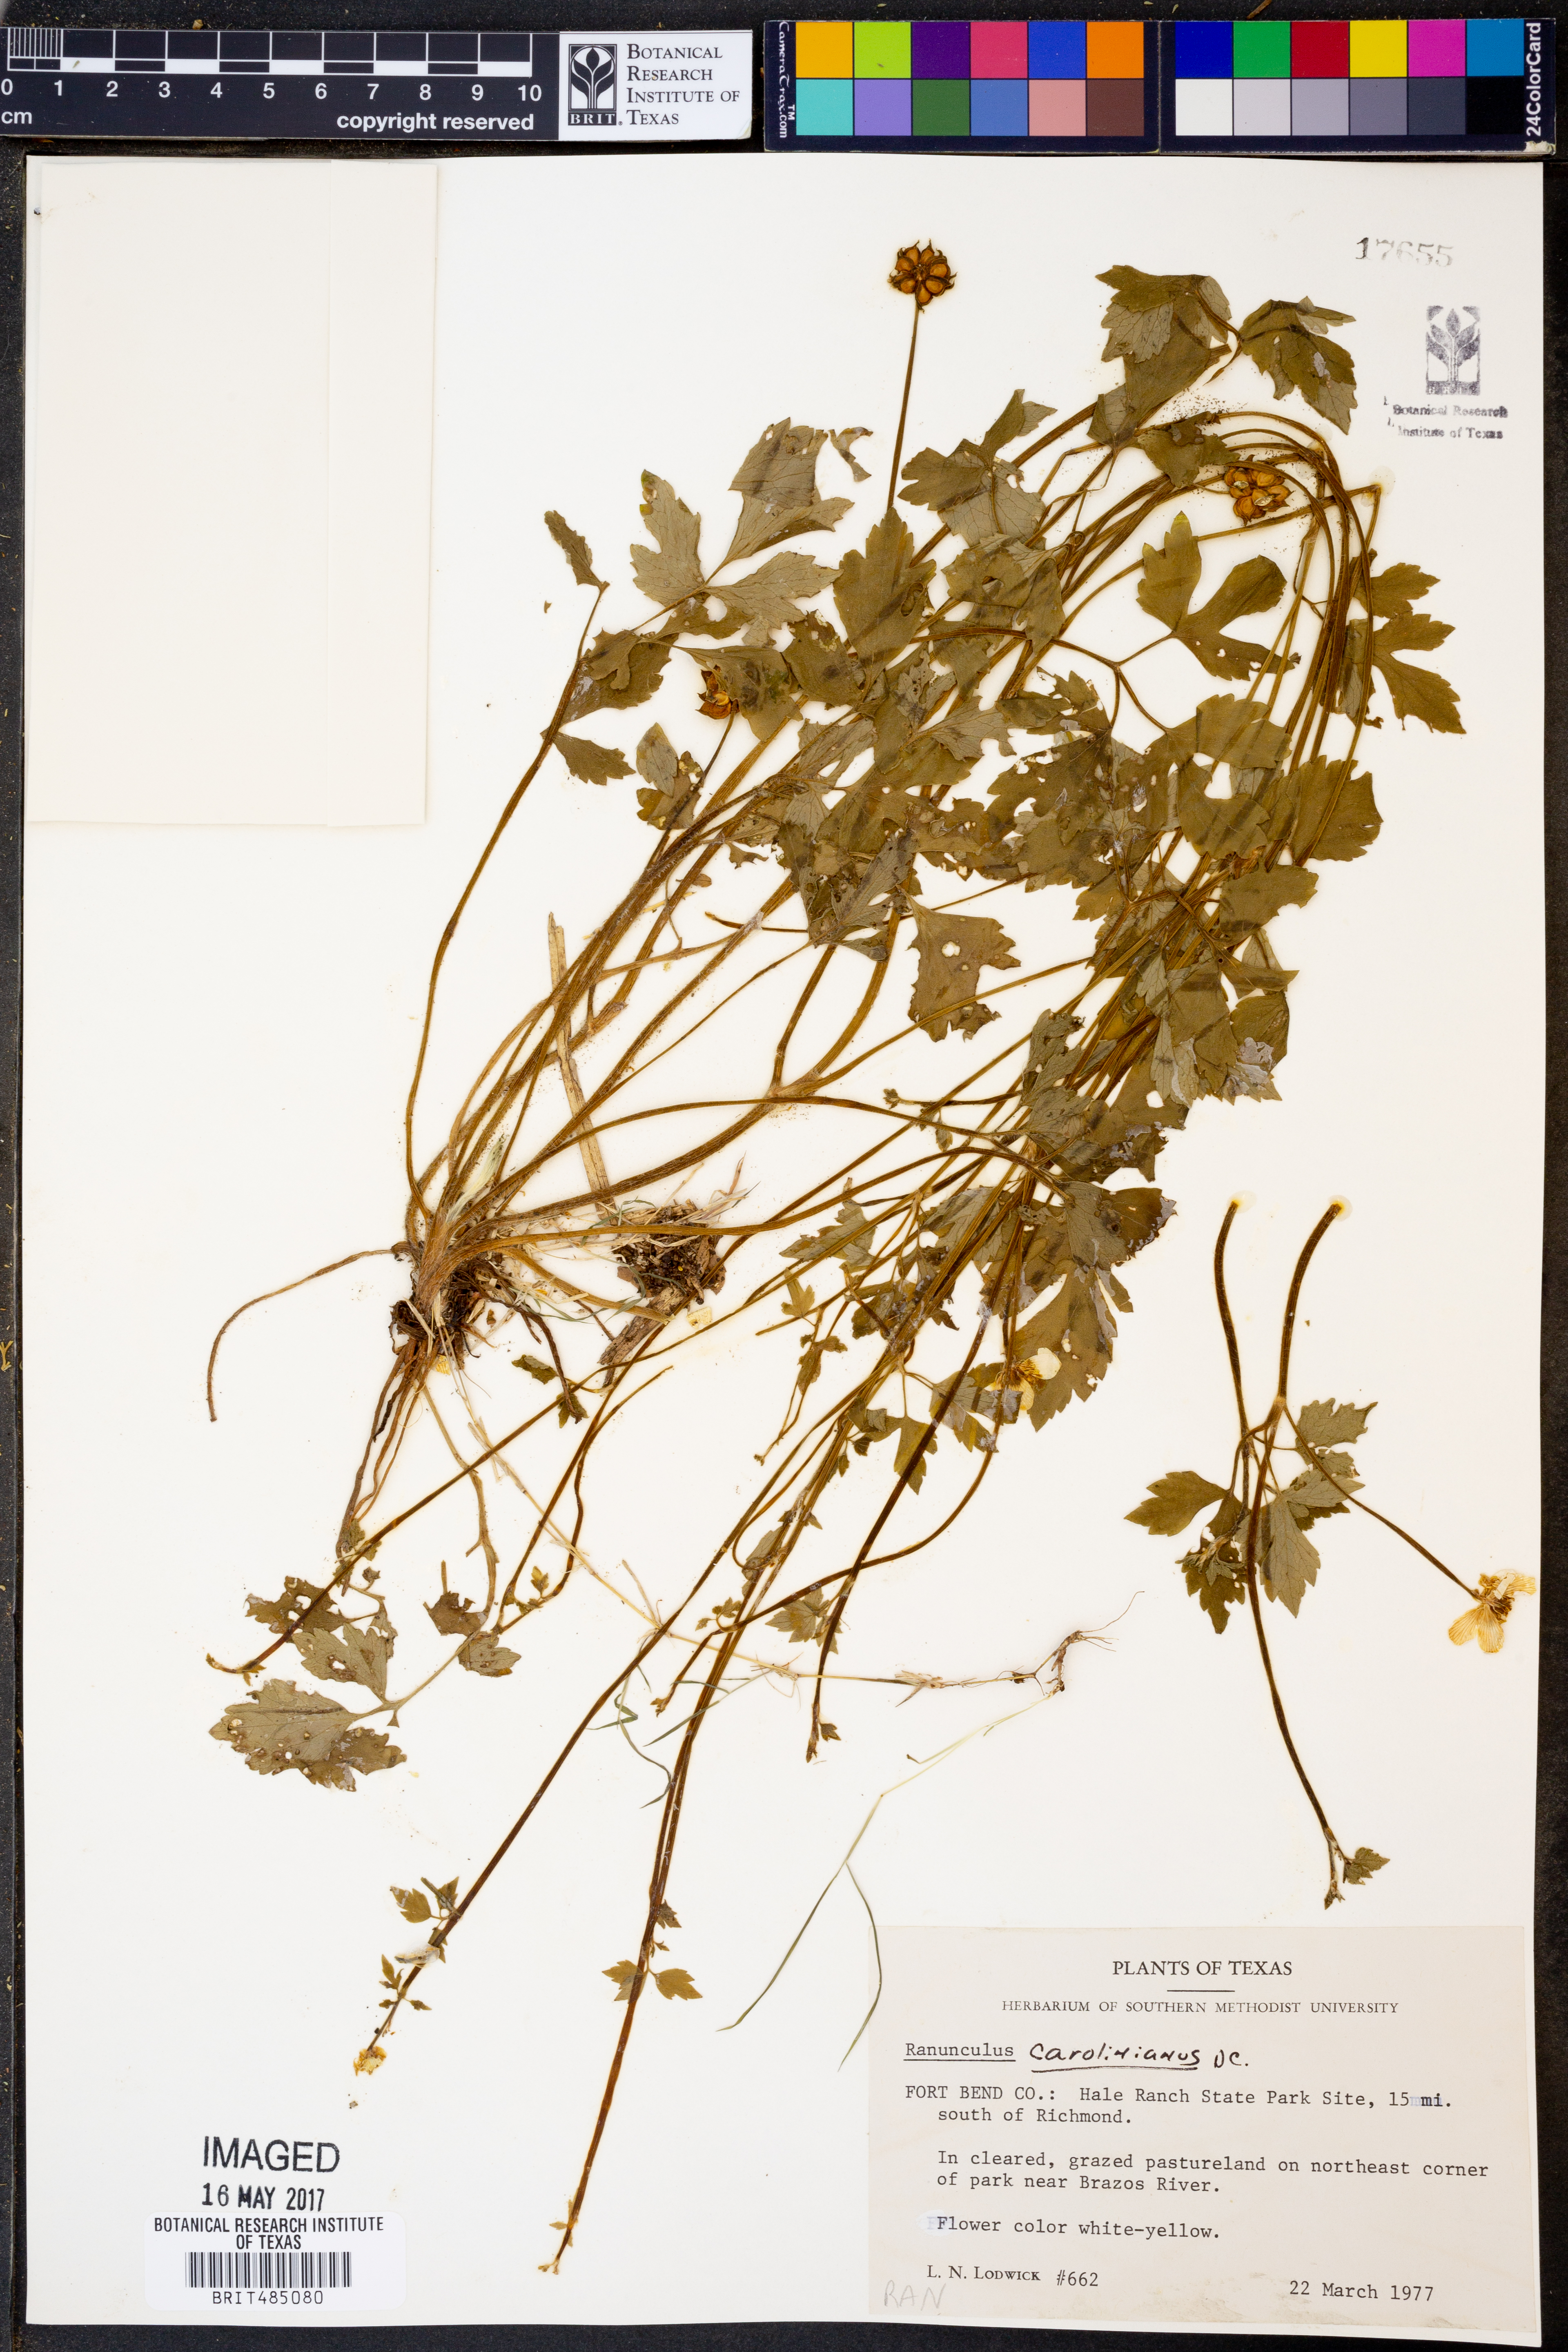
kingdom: Plantae
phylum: Tracheophyta
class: Magnoliopsida
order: Ranunculales
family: Ranunculaceae
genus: Ranunculus
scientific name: Ranunculus hispidus
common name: Bristly buttercup
